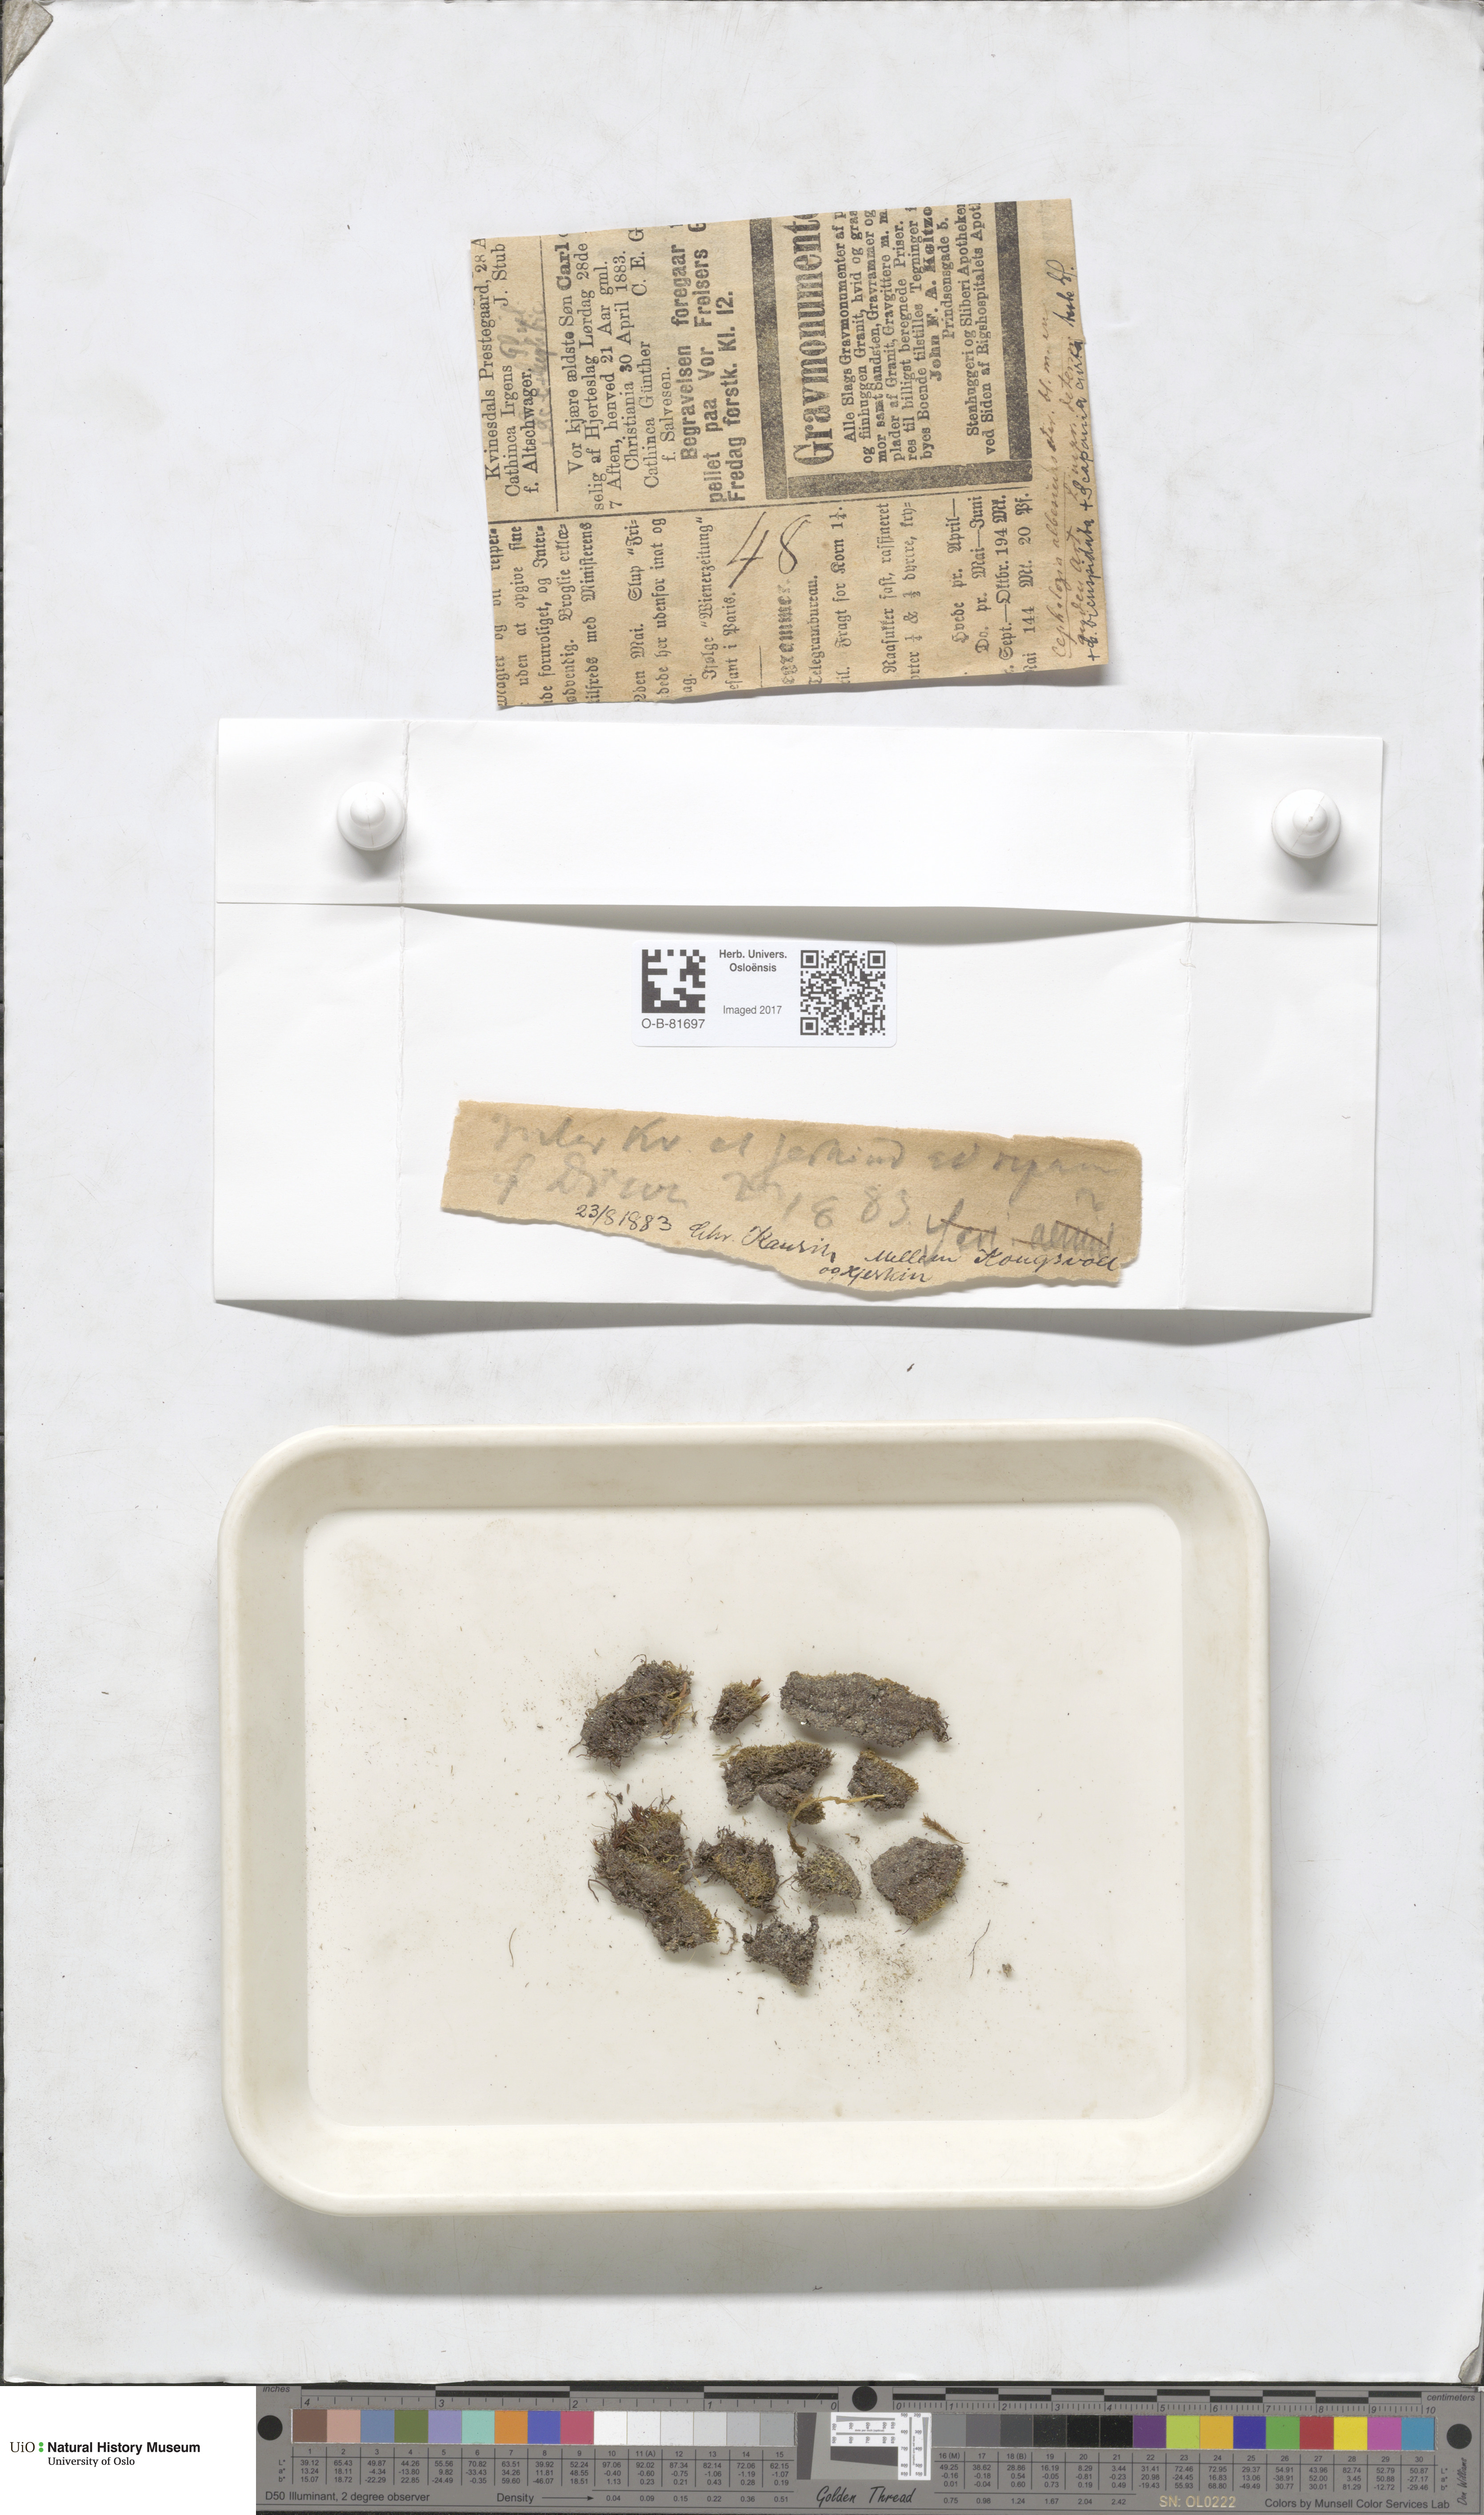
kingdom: Plantae
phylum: Marchantiophyta
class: Jungermanniopsida
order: Jungermanniales
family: Cephaloziaceae
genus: Fuscocephaloziopsis
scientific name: Fuscocephaloziopsis albescens
